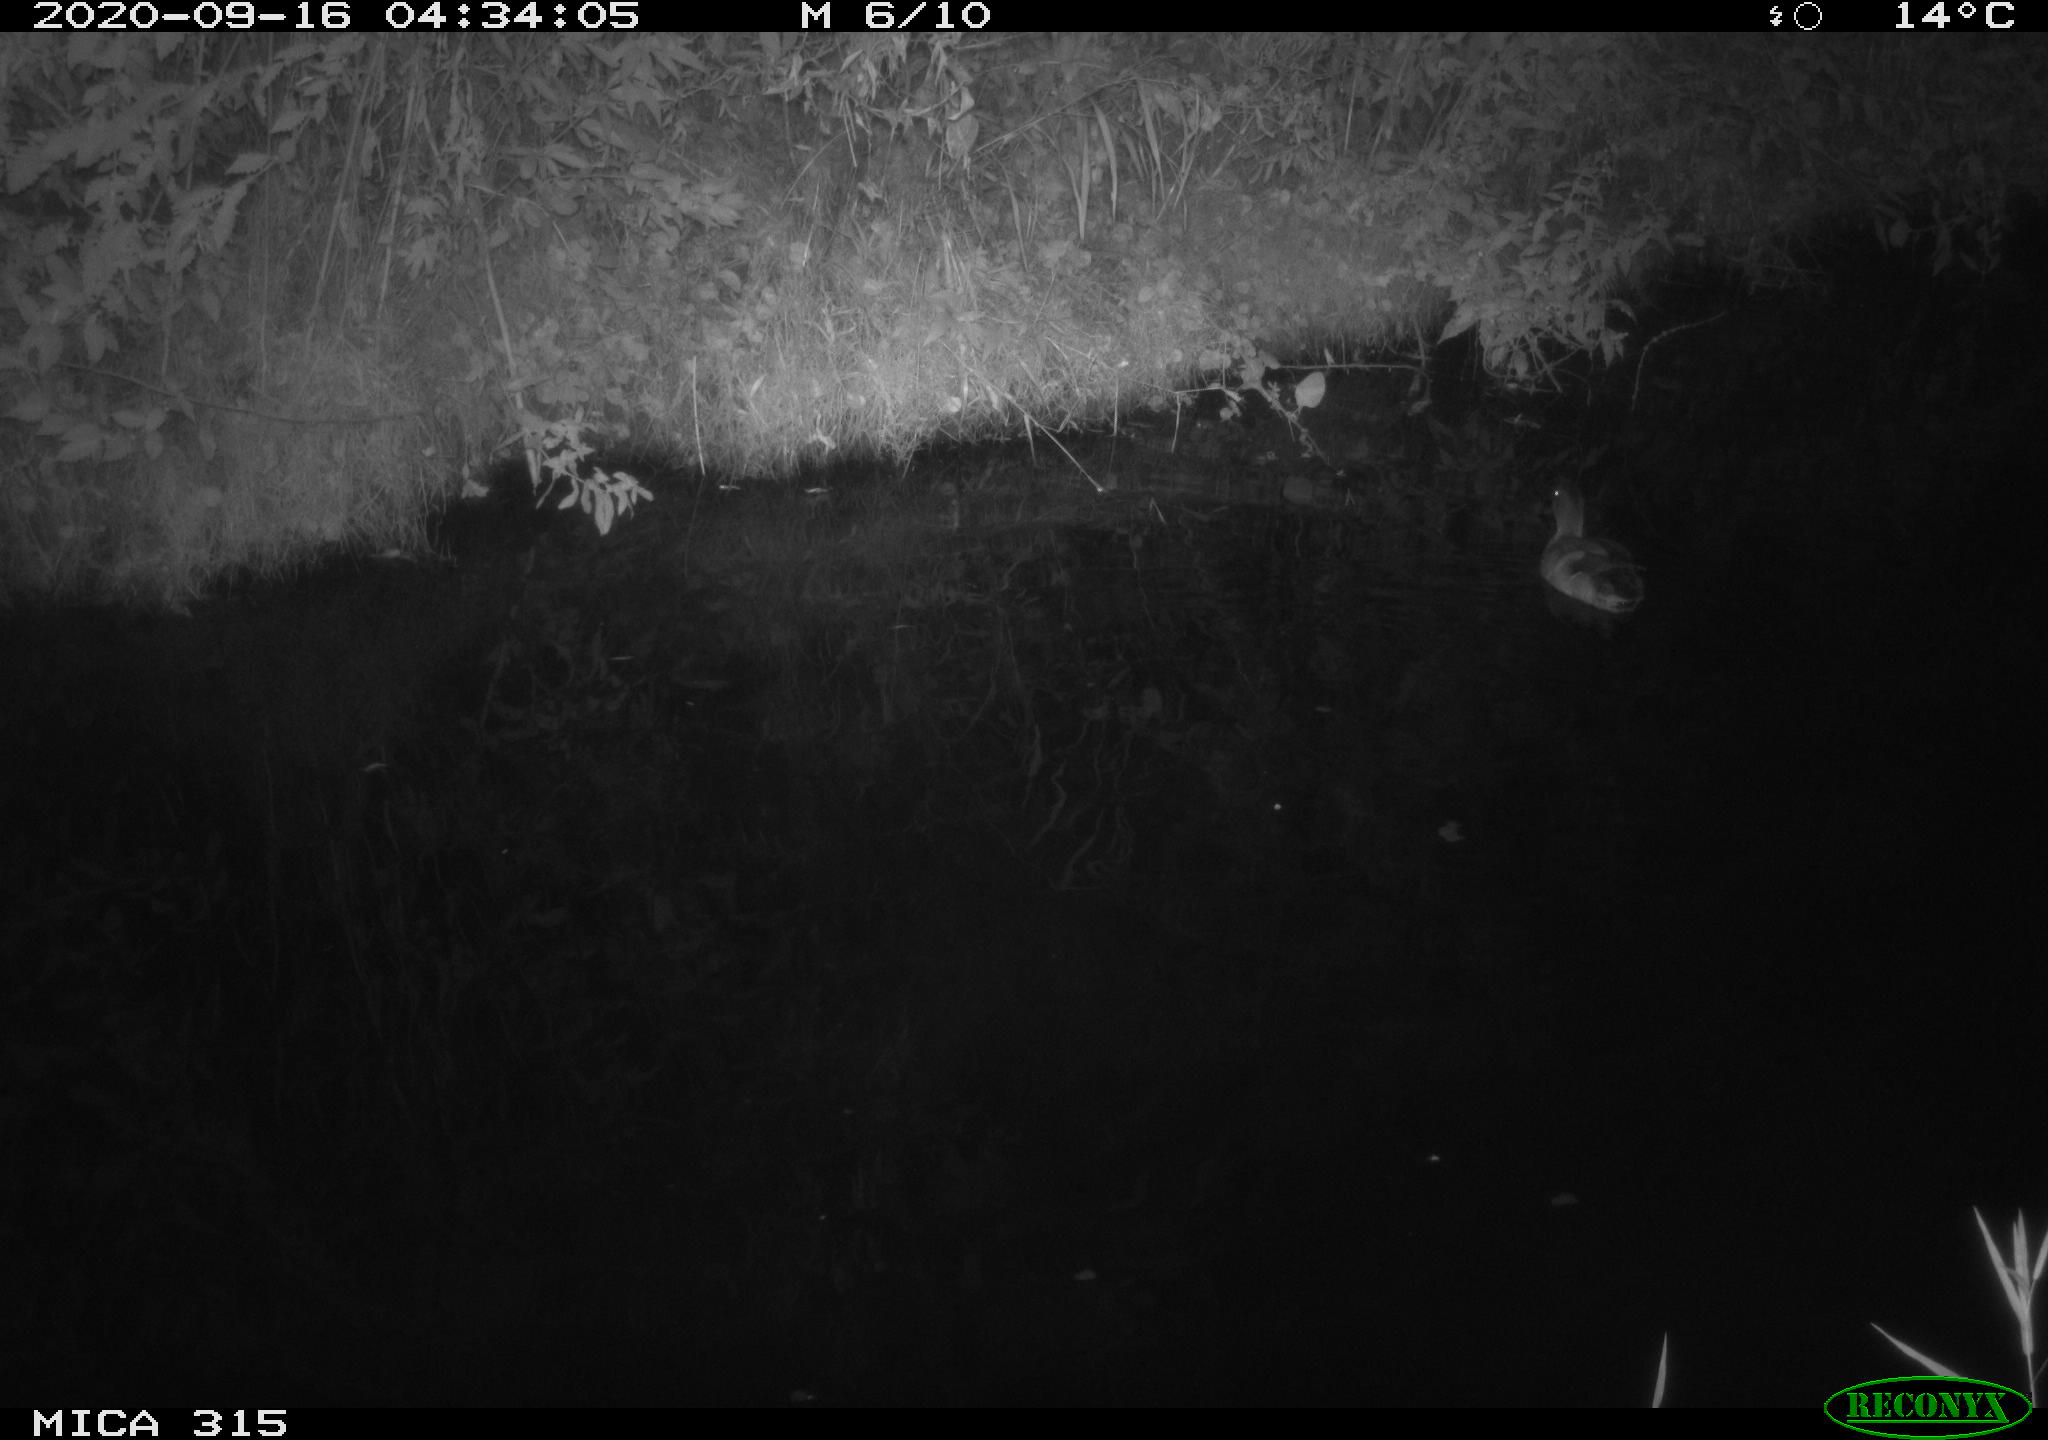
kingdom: Animalia
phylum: Chordata
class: Aves
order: Anseriformes
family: Anatidae
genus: Anas
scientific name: Anas platyrhynchos
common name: Mallard
